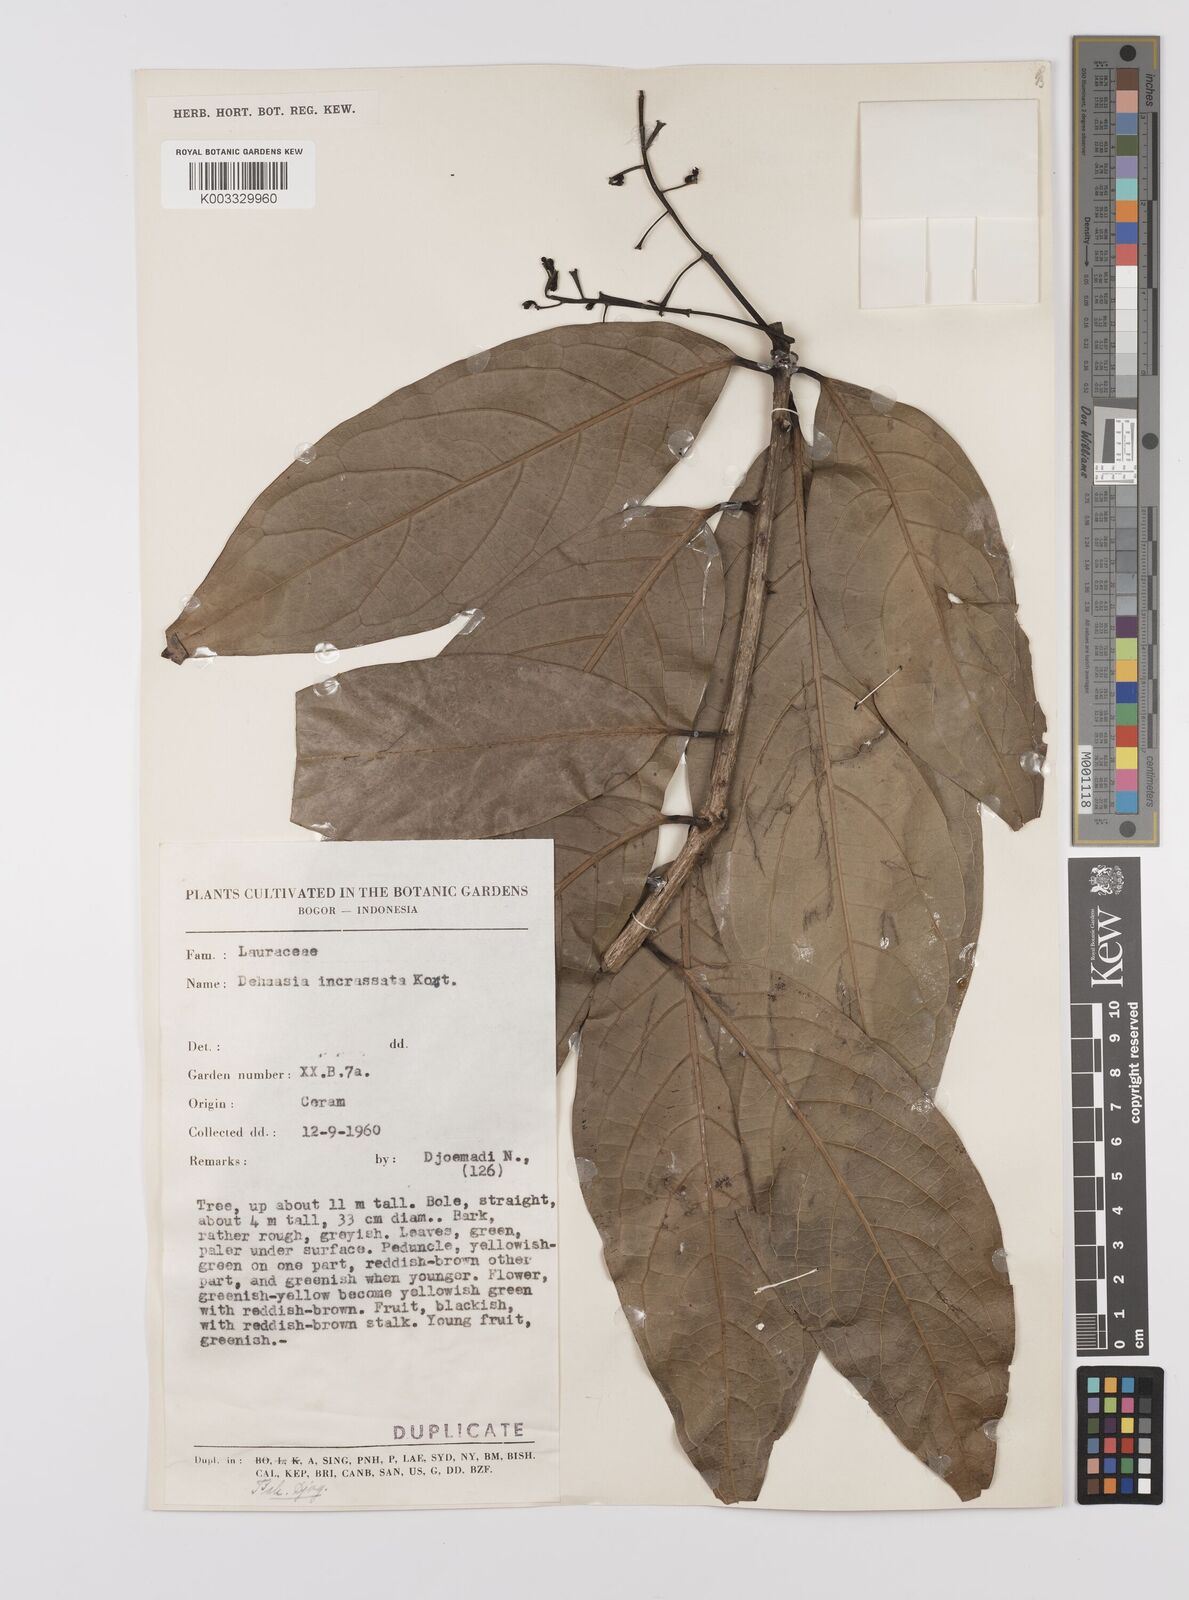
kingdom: Plantae
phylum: Tracheophyta
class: Magnoliopsida
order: Laurales
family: Lauraceae
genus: Dehaasia
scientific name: Dehaasia incrassata
